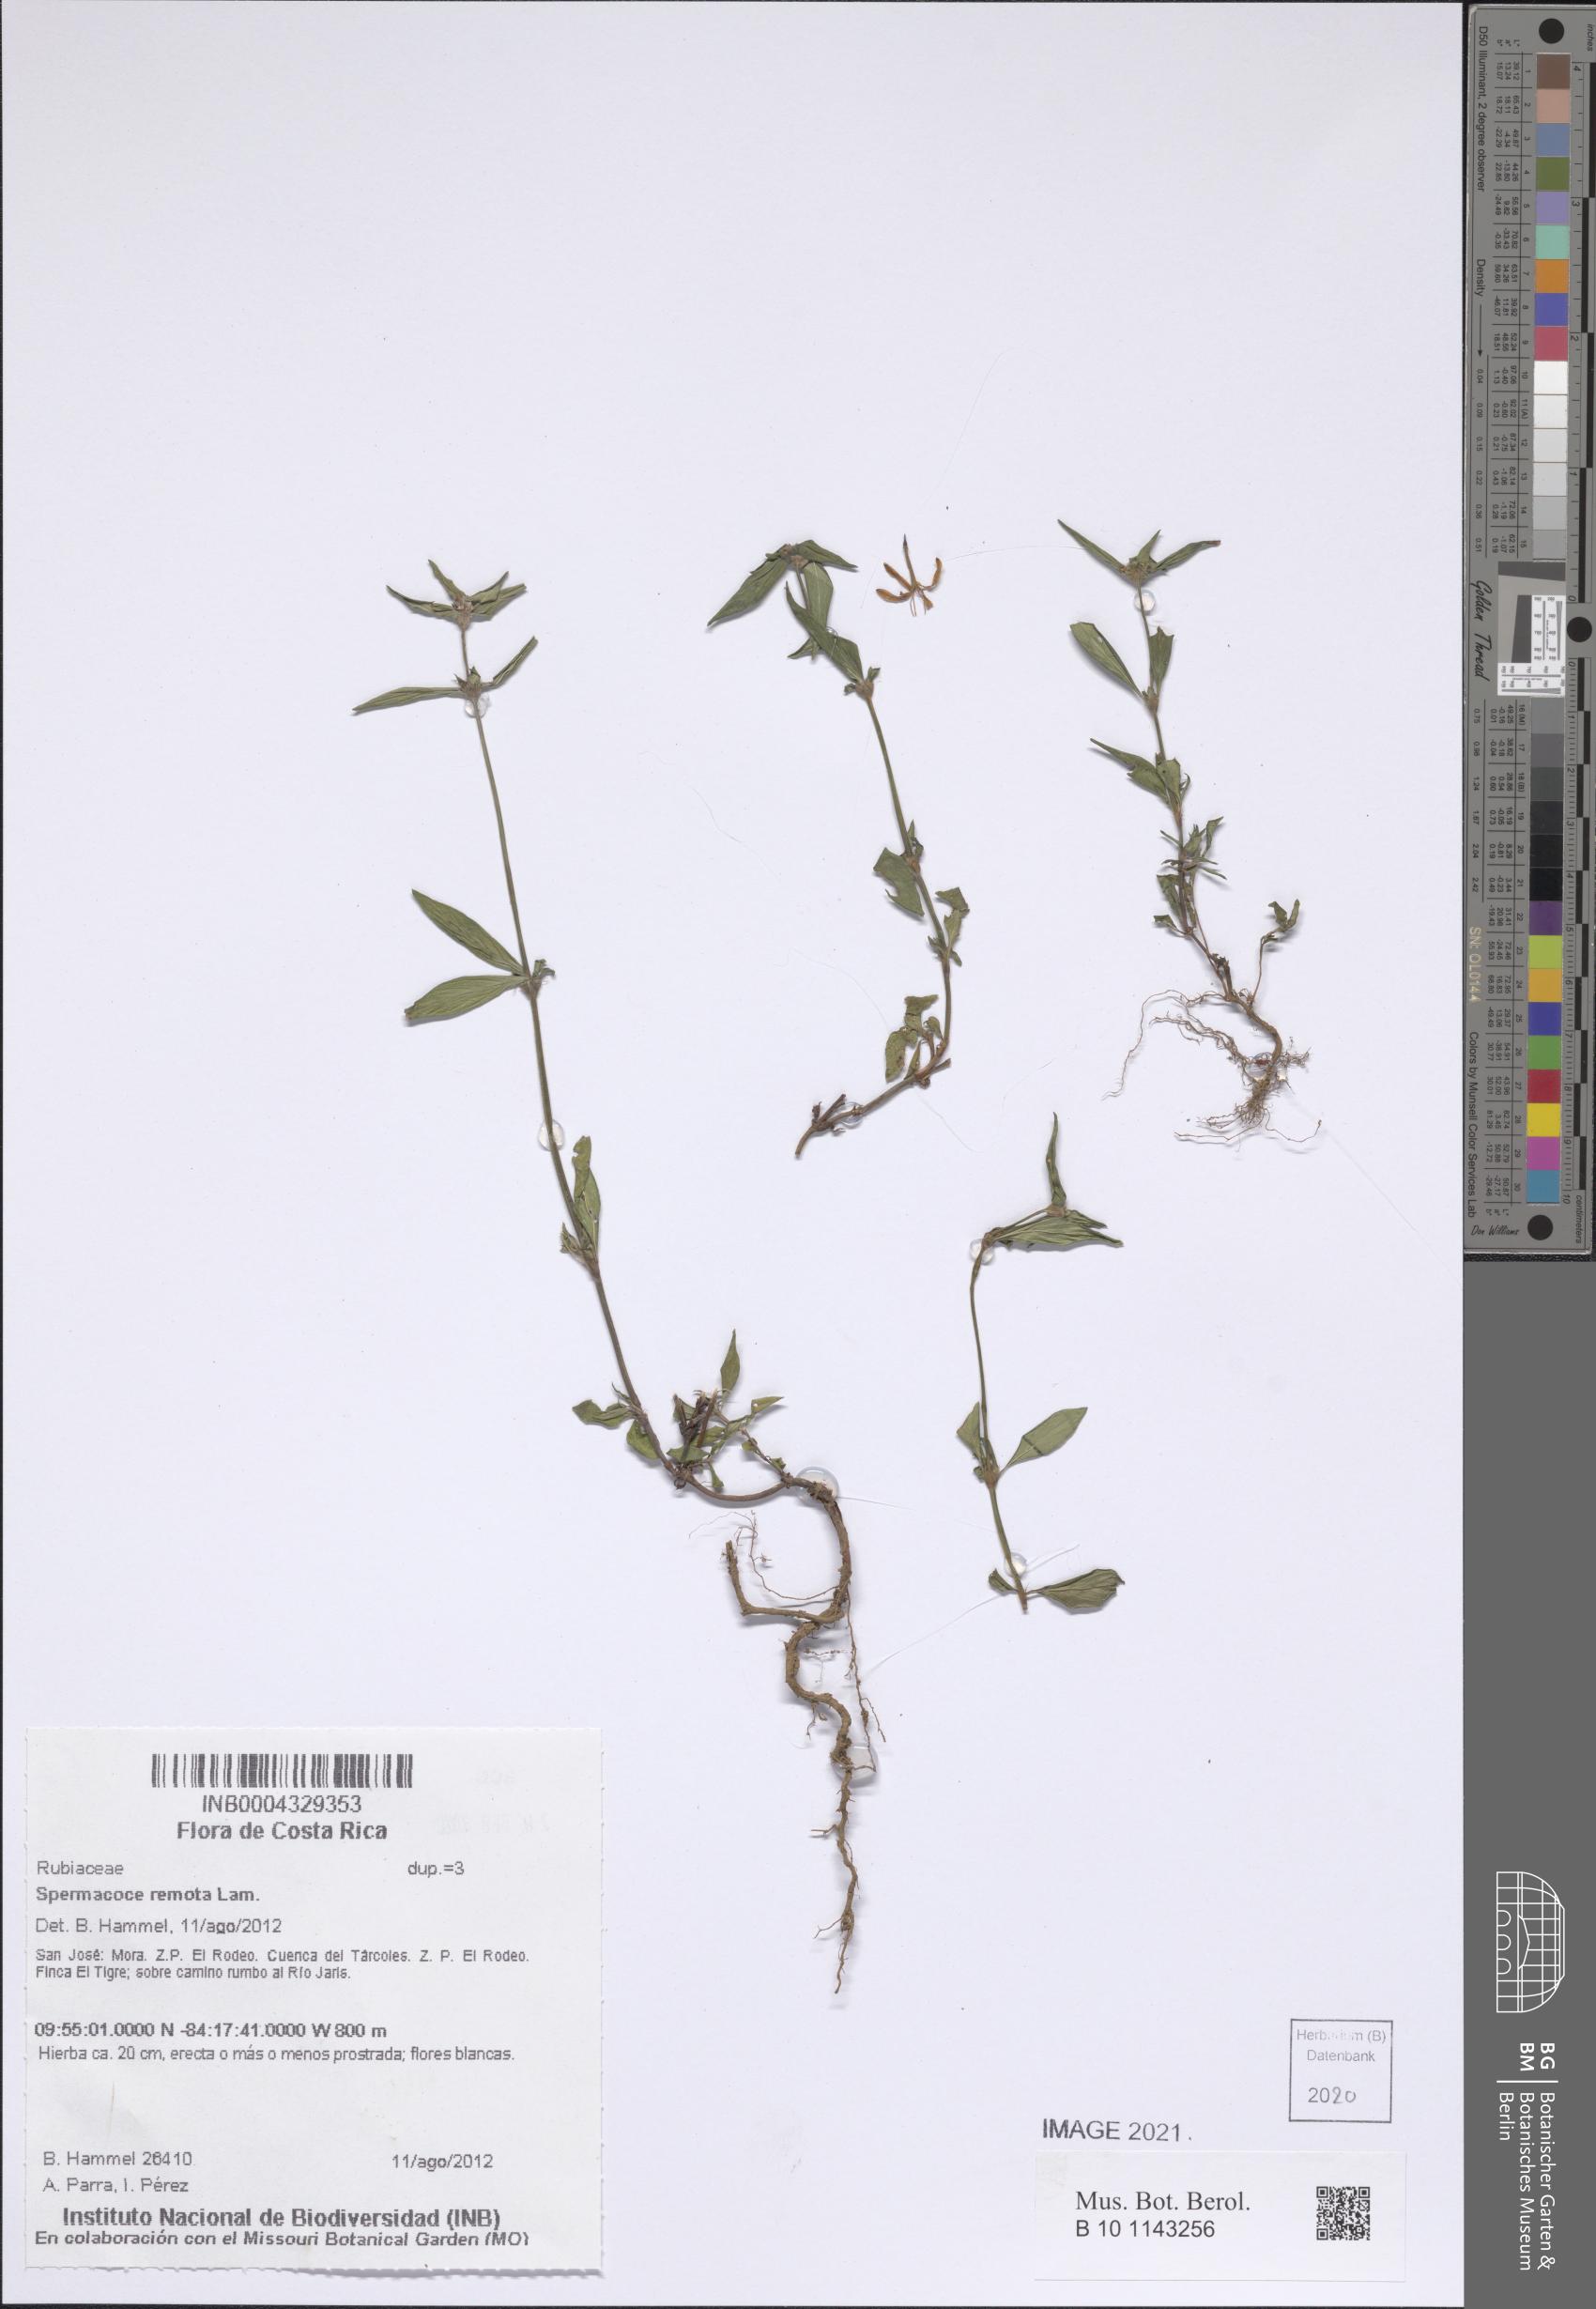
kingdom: Plantae
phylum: Tracheophyta
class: Magnoliopsida
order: Gentianales
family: Rubiaceae
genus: Spermacoce
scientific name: Spermacoce remota
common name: Woodland false buttonweed
